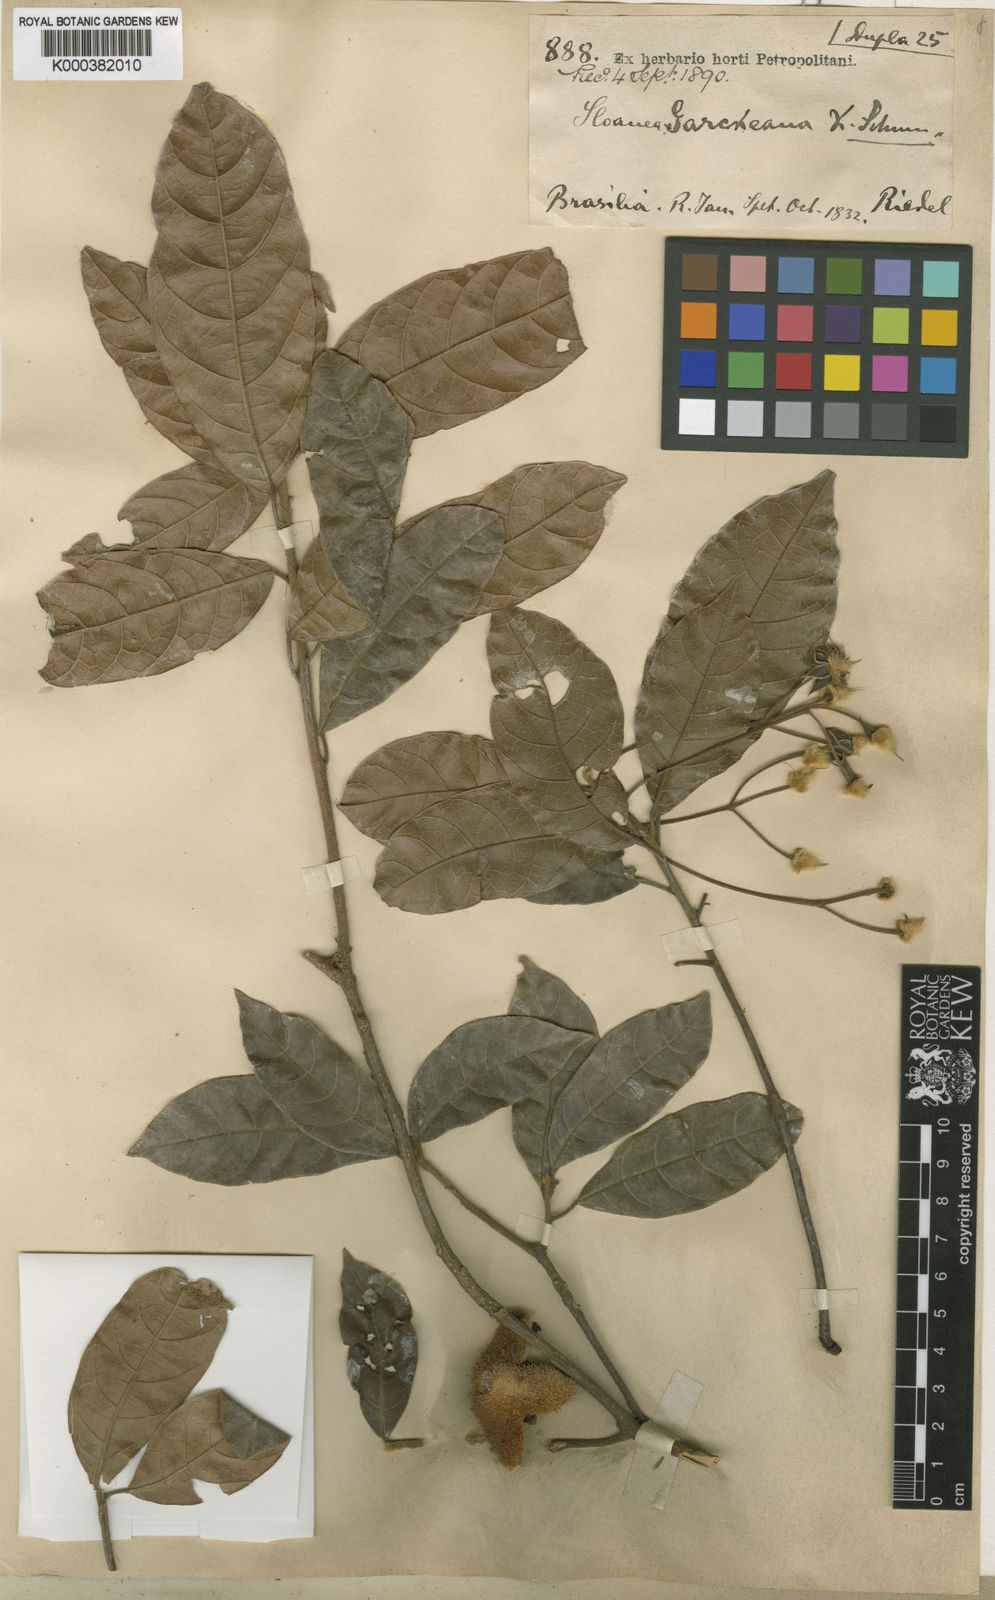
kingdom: Plantae
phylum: Tracheophyta
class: Magnoliopsida
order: Oxalidales
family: Elaeocarpaceae
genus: Sloanea
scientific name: Sloanea garckeana
